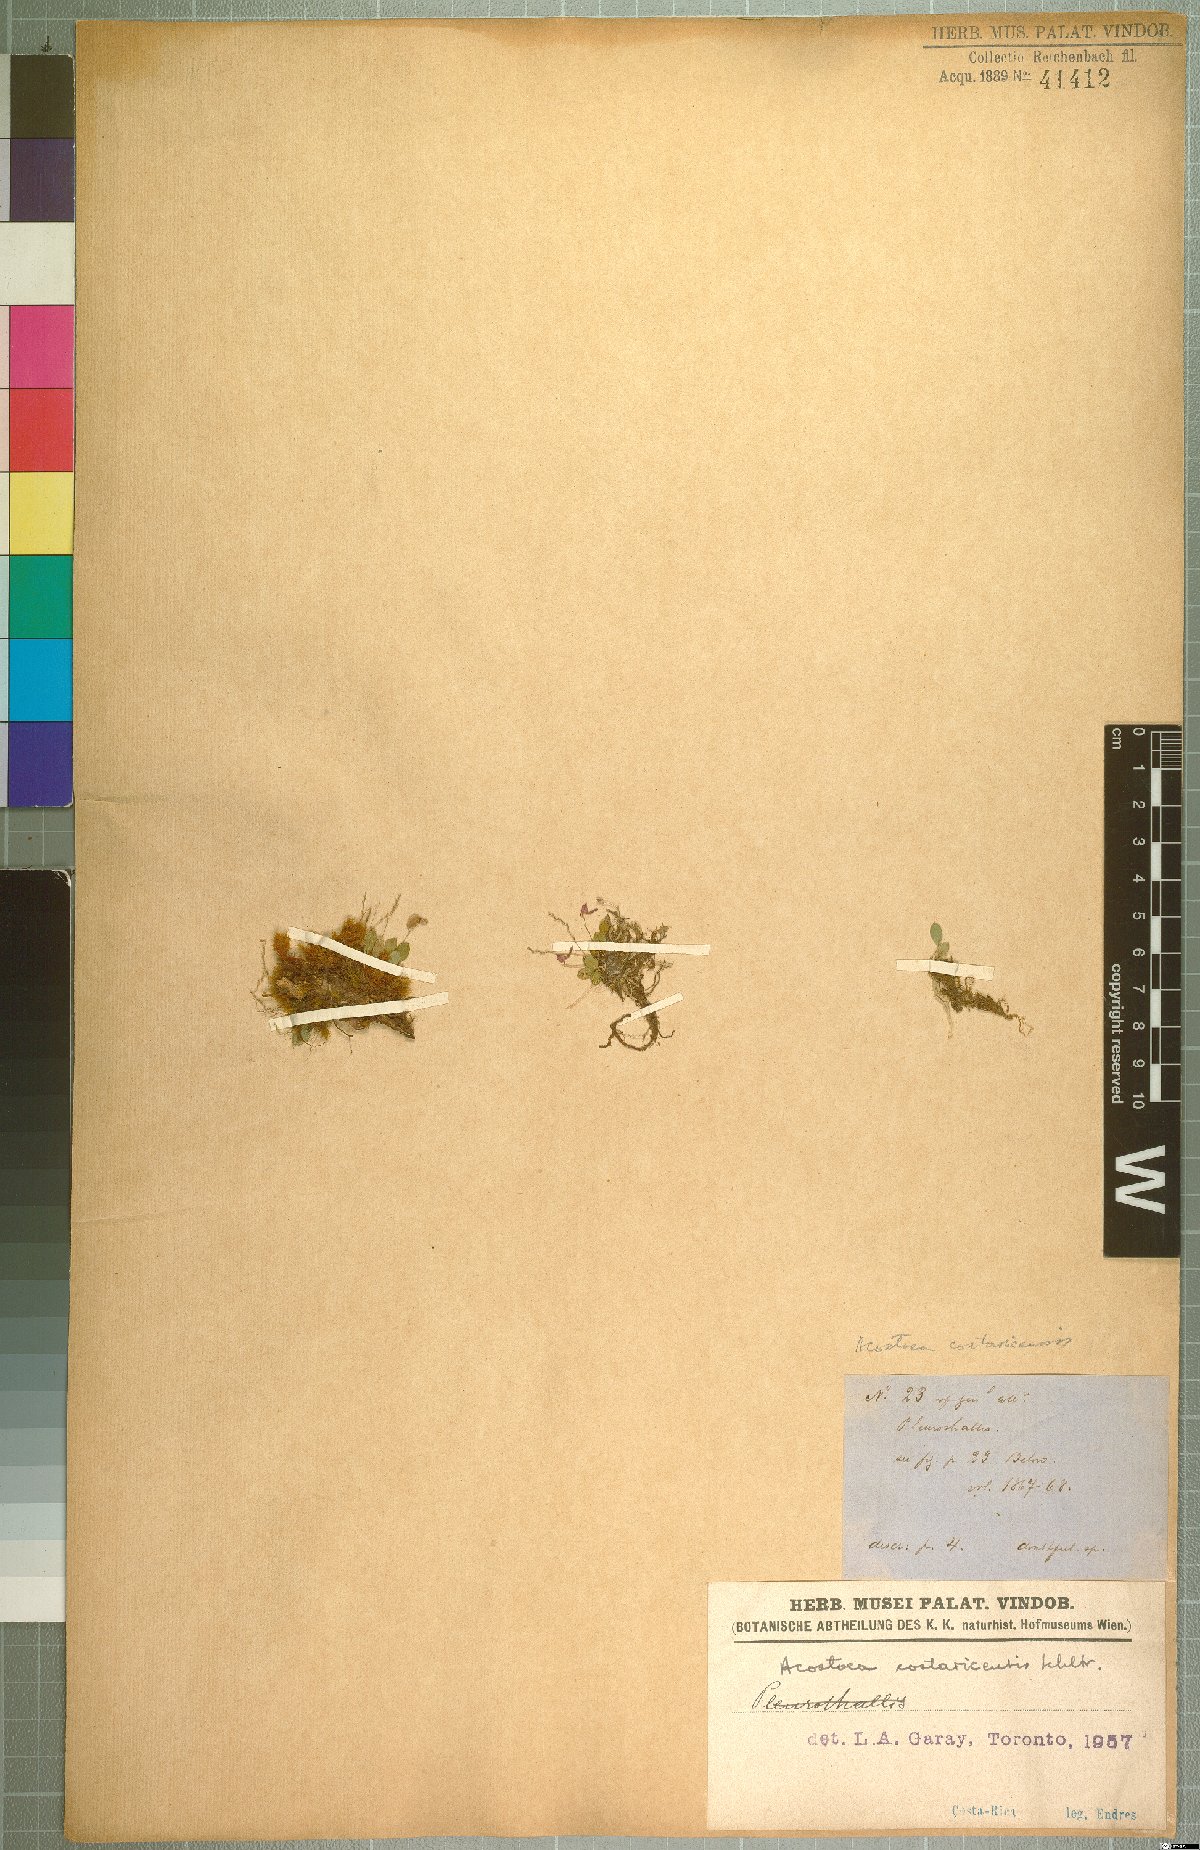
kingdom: Plantae
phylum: Tracheophyta
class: Liliopsida
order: Asparagales
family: Orchidaceae
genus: Specklinia
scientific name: Specklinia colombiana
